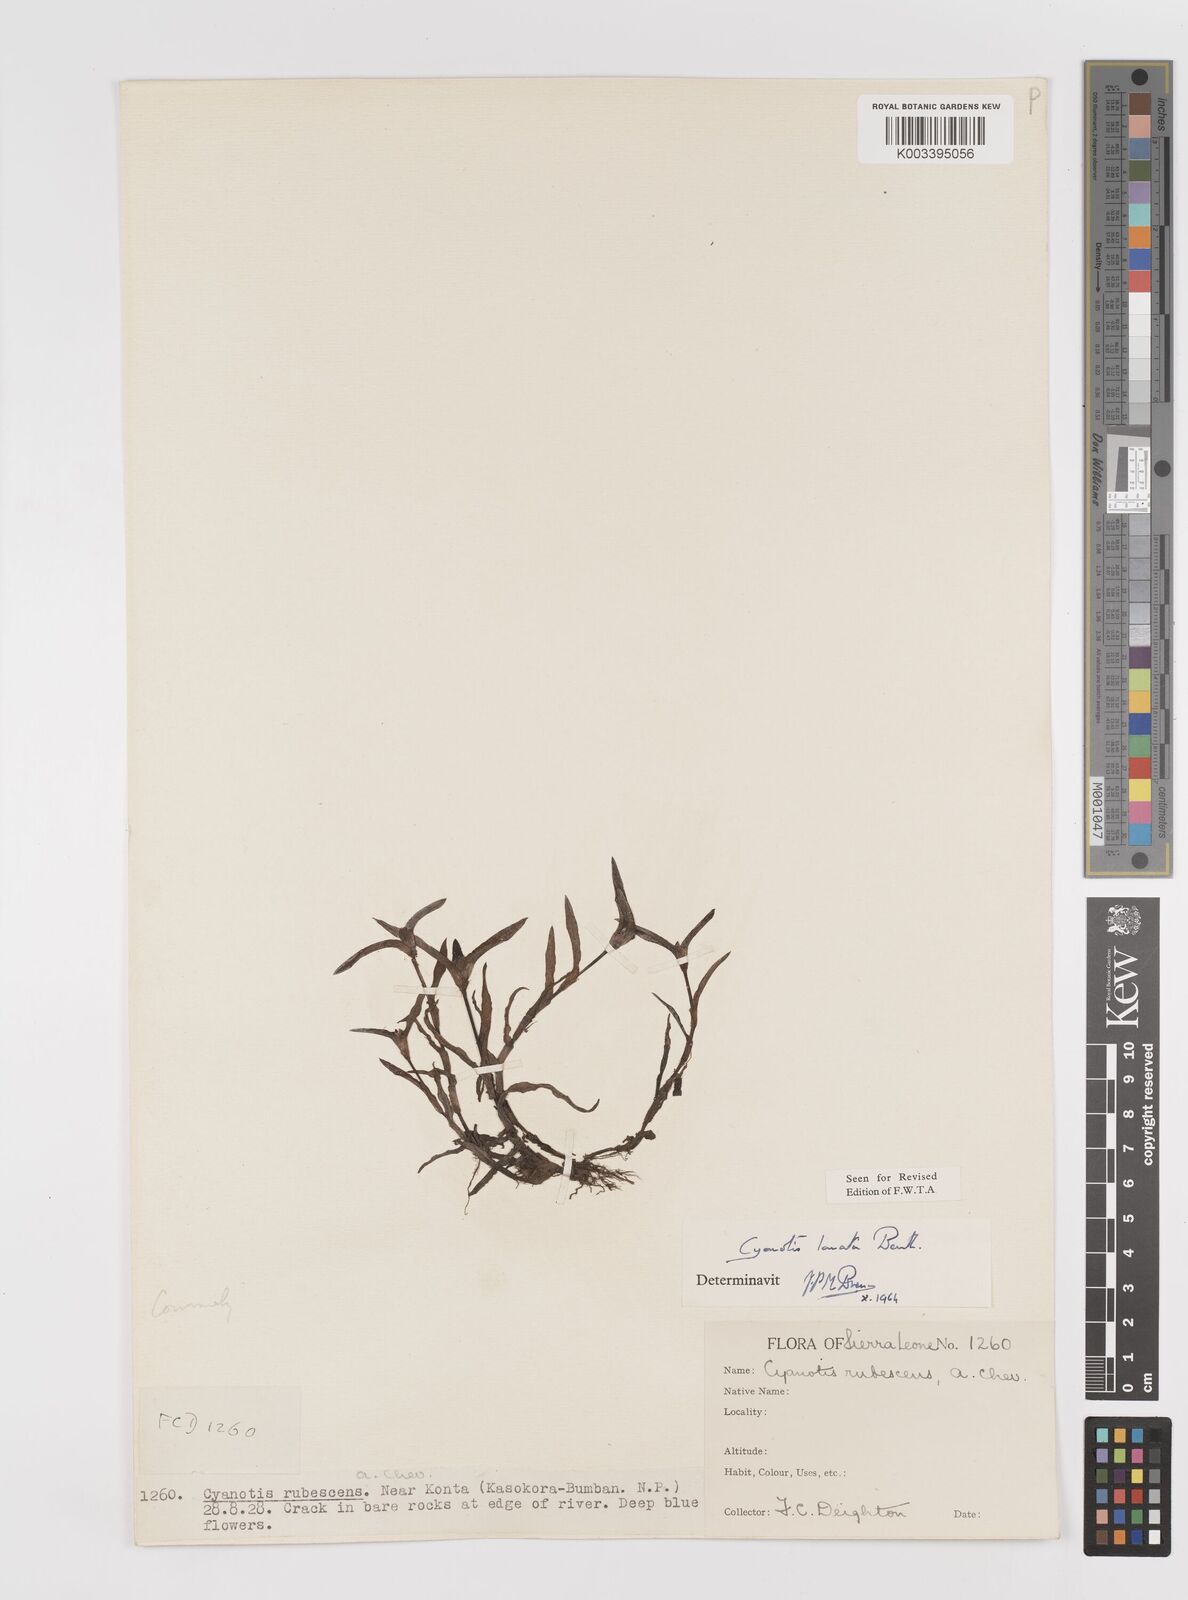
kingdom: Plantae
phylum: Tracheophyta
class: Liliopsida
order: Commelinales
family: Commelinaceae
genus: Cyanotis
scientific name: Cyanotis lanata
